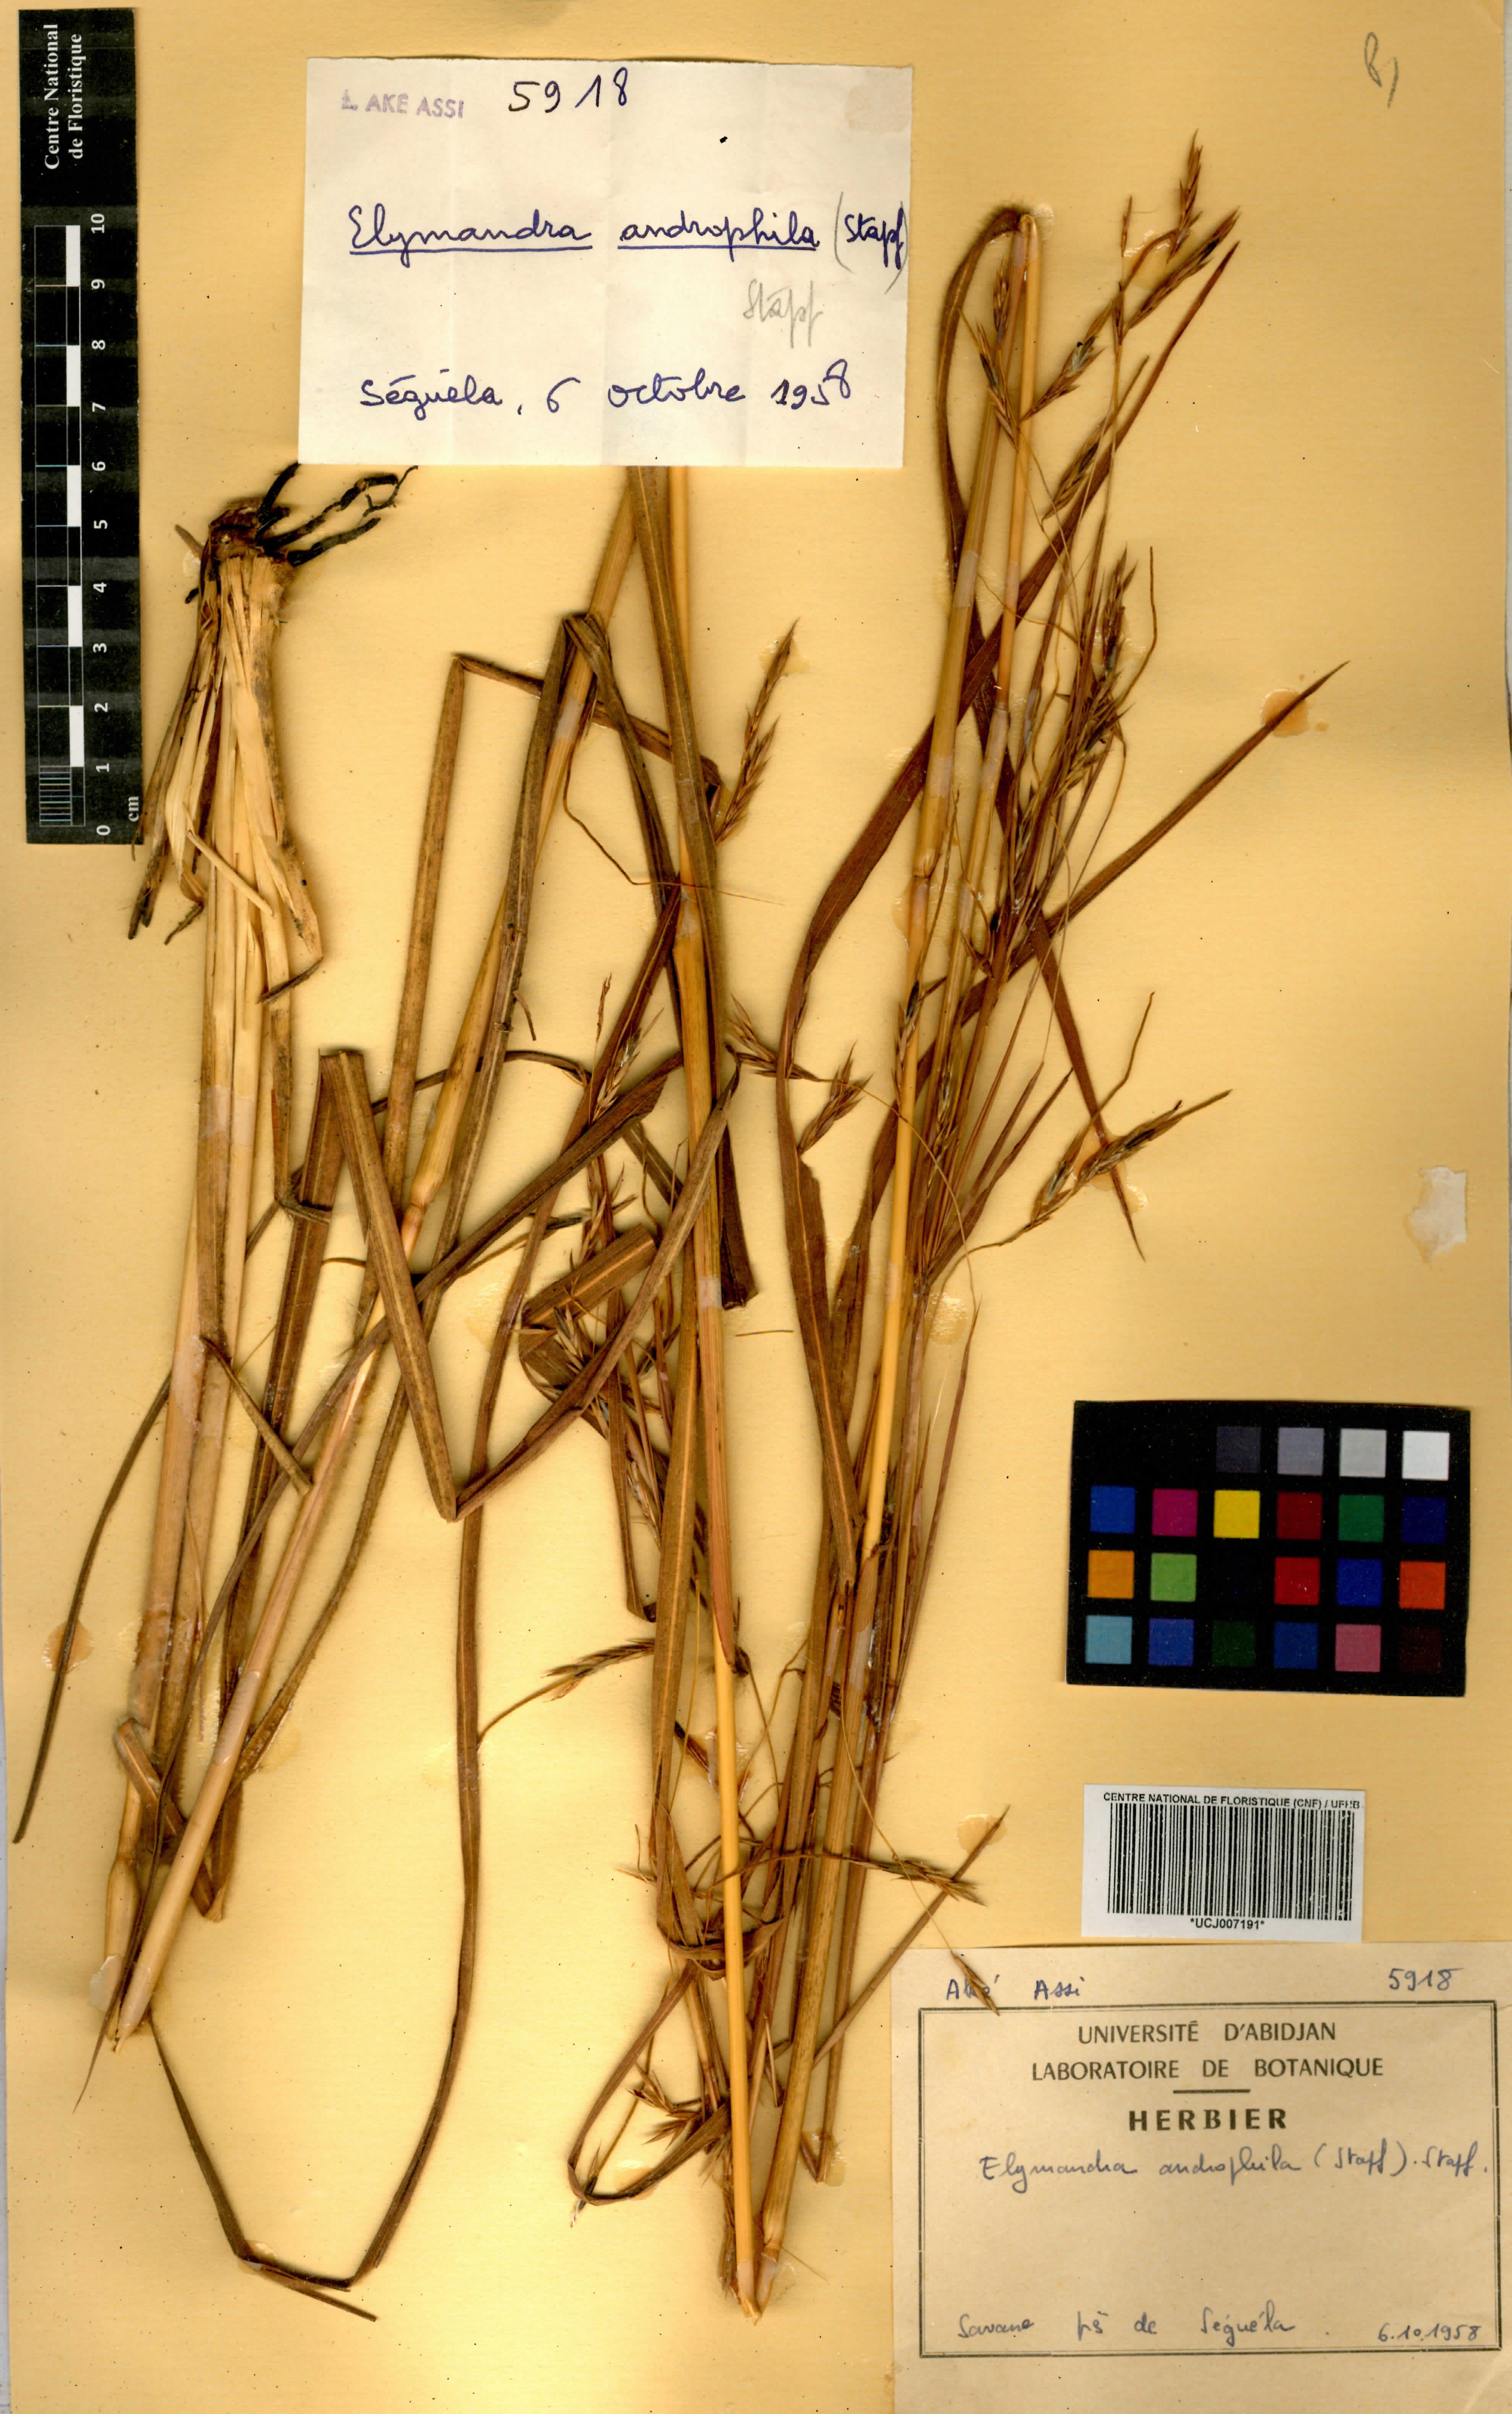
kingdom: Plantae
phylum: Tracheophyta
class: Liliopsida
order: Poales
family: Poaceae
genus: Elymandra
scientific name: Elymandra androphila
